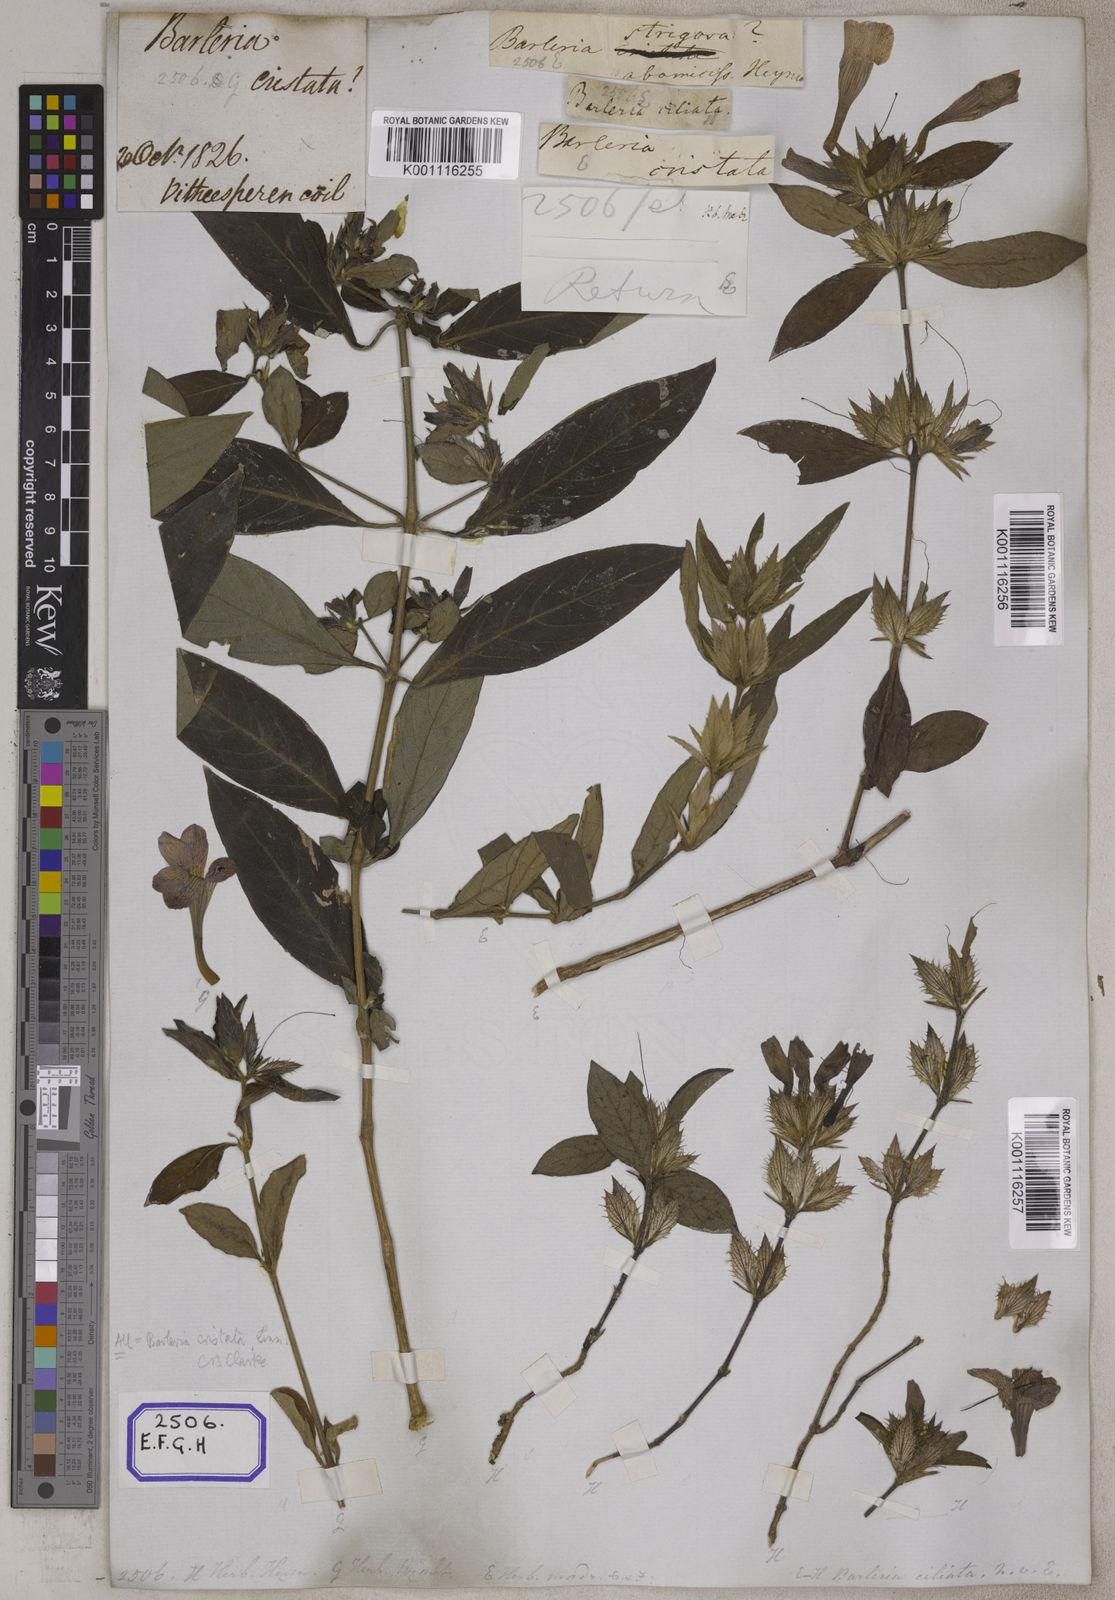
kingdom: Plantae
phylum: Tracheophyta
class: Magnoliopsida
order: Lamiales
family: Acanthaceae
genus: Barleria
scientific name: Barleria cristata
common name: Crested philippine violet
